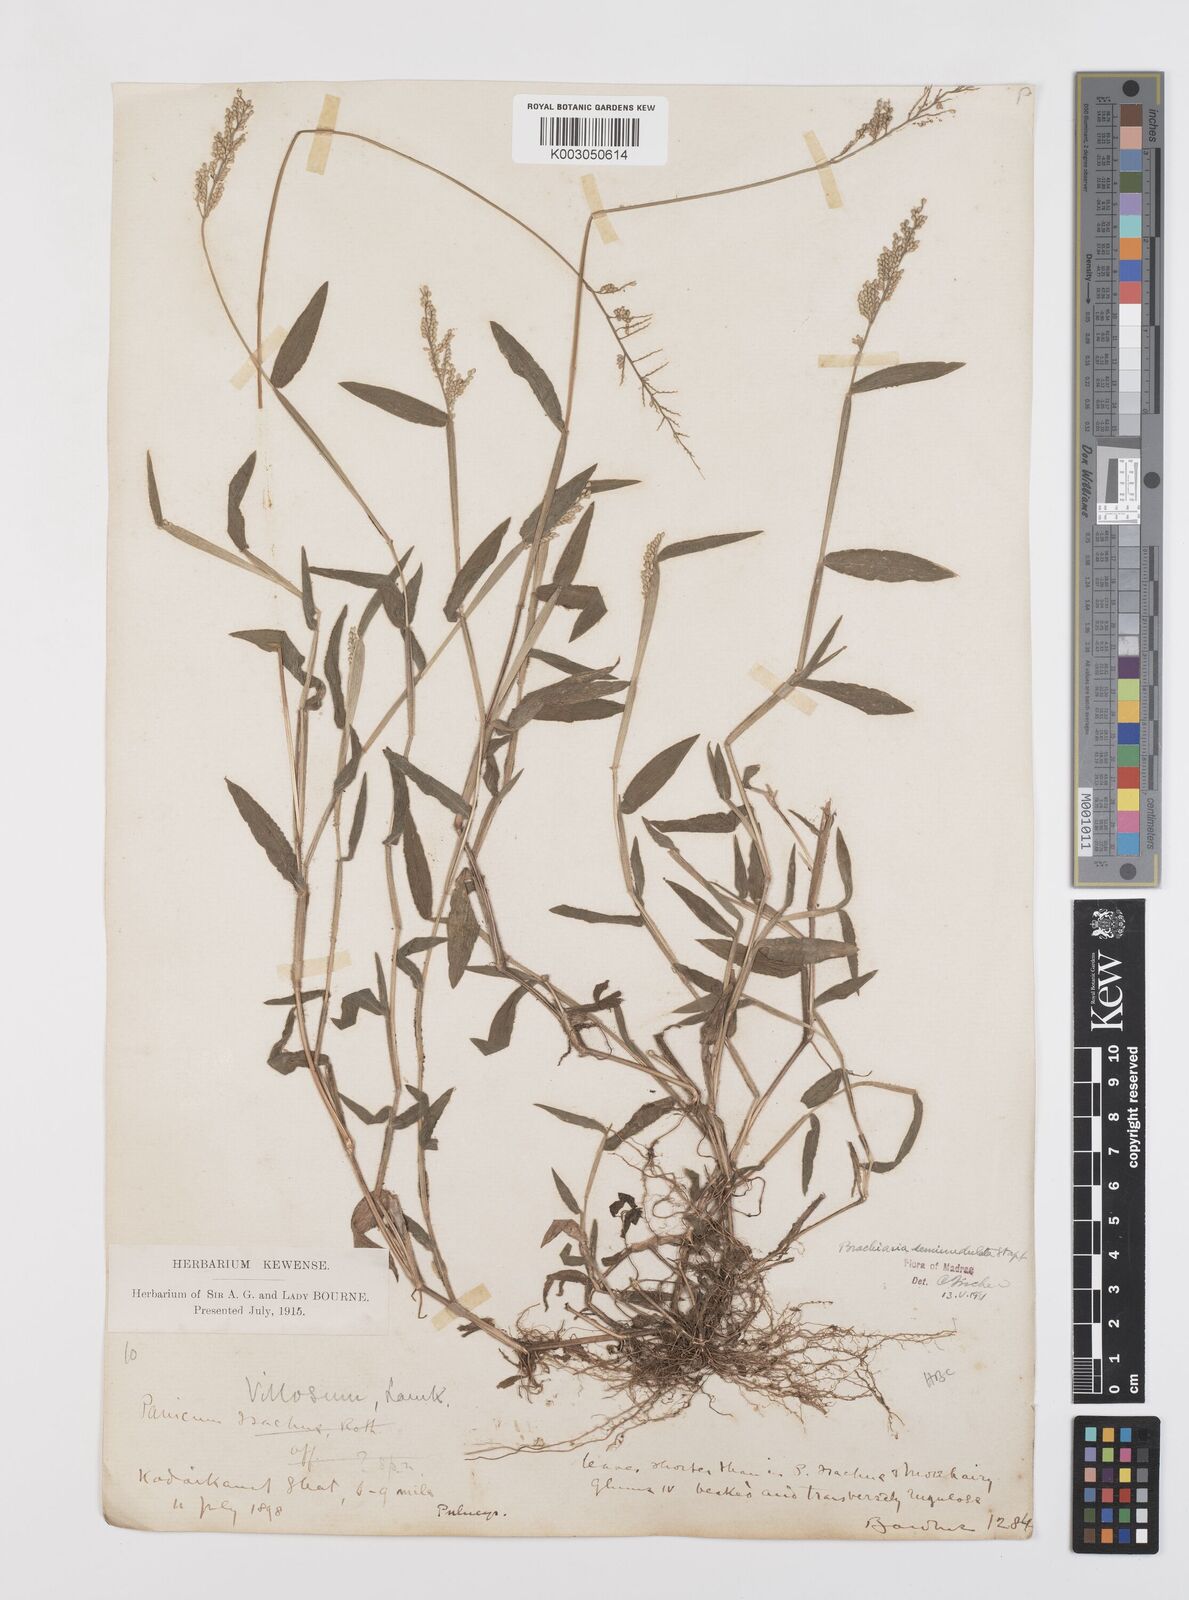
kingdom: Plantae
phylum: Tracheophyta
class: Liliopsida
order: Poales
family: Poaceae
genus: Urochloa
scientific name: Urochloa semiundulata
